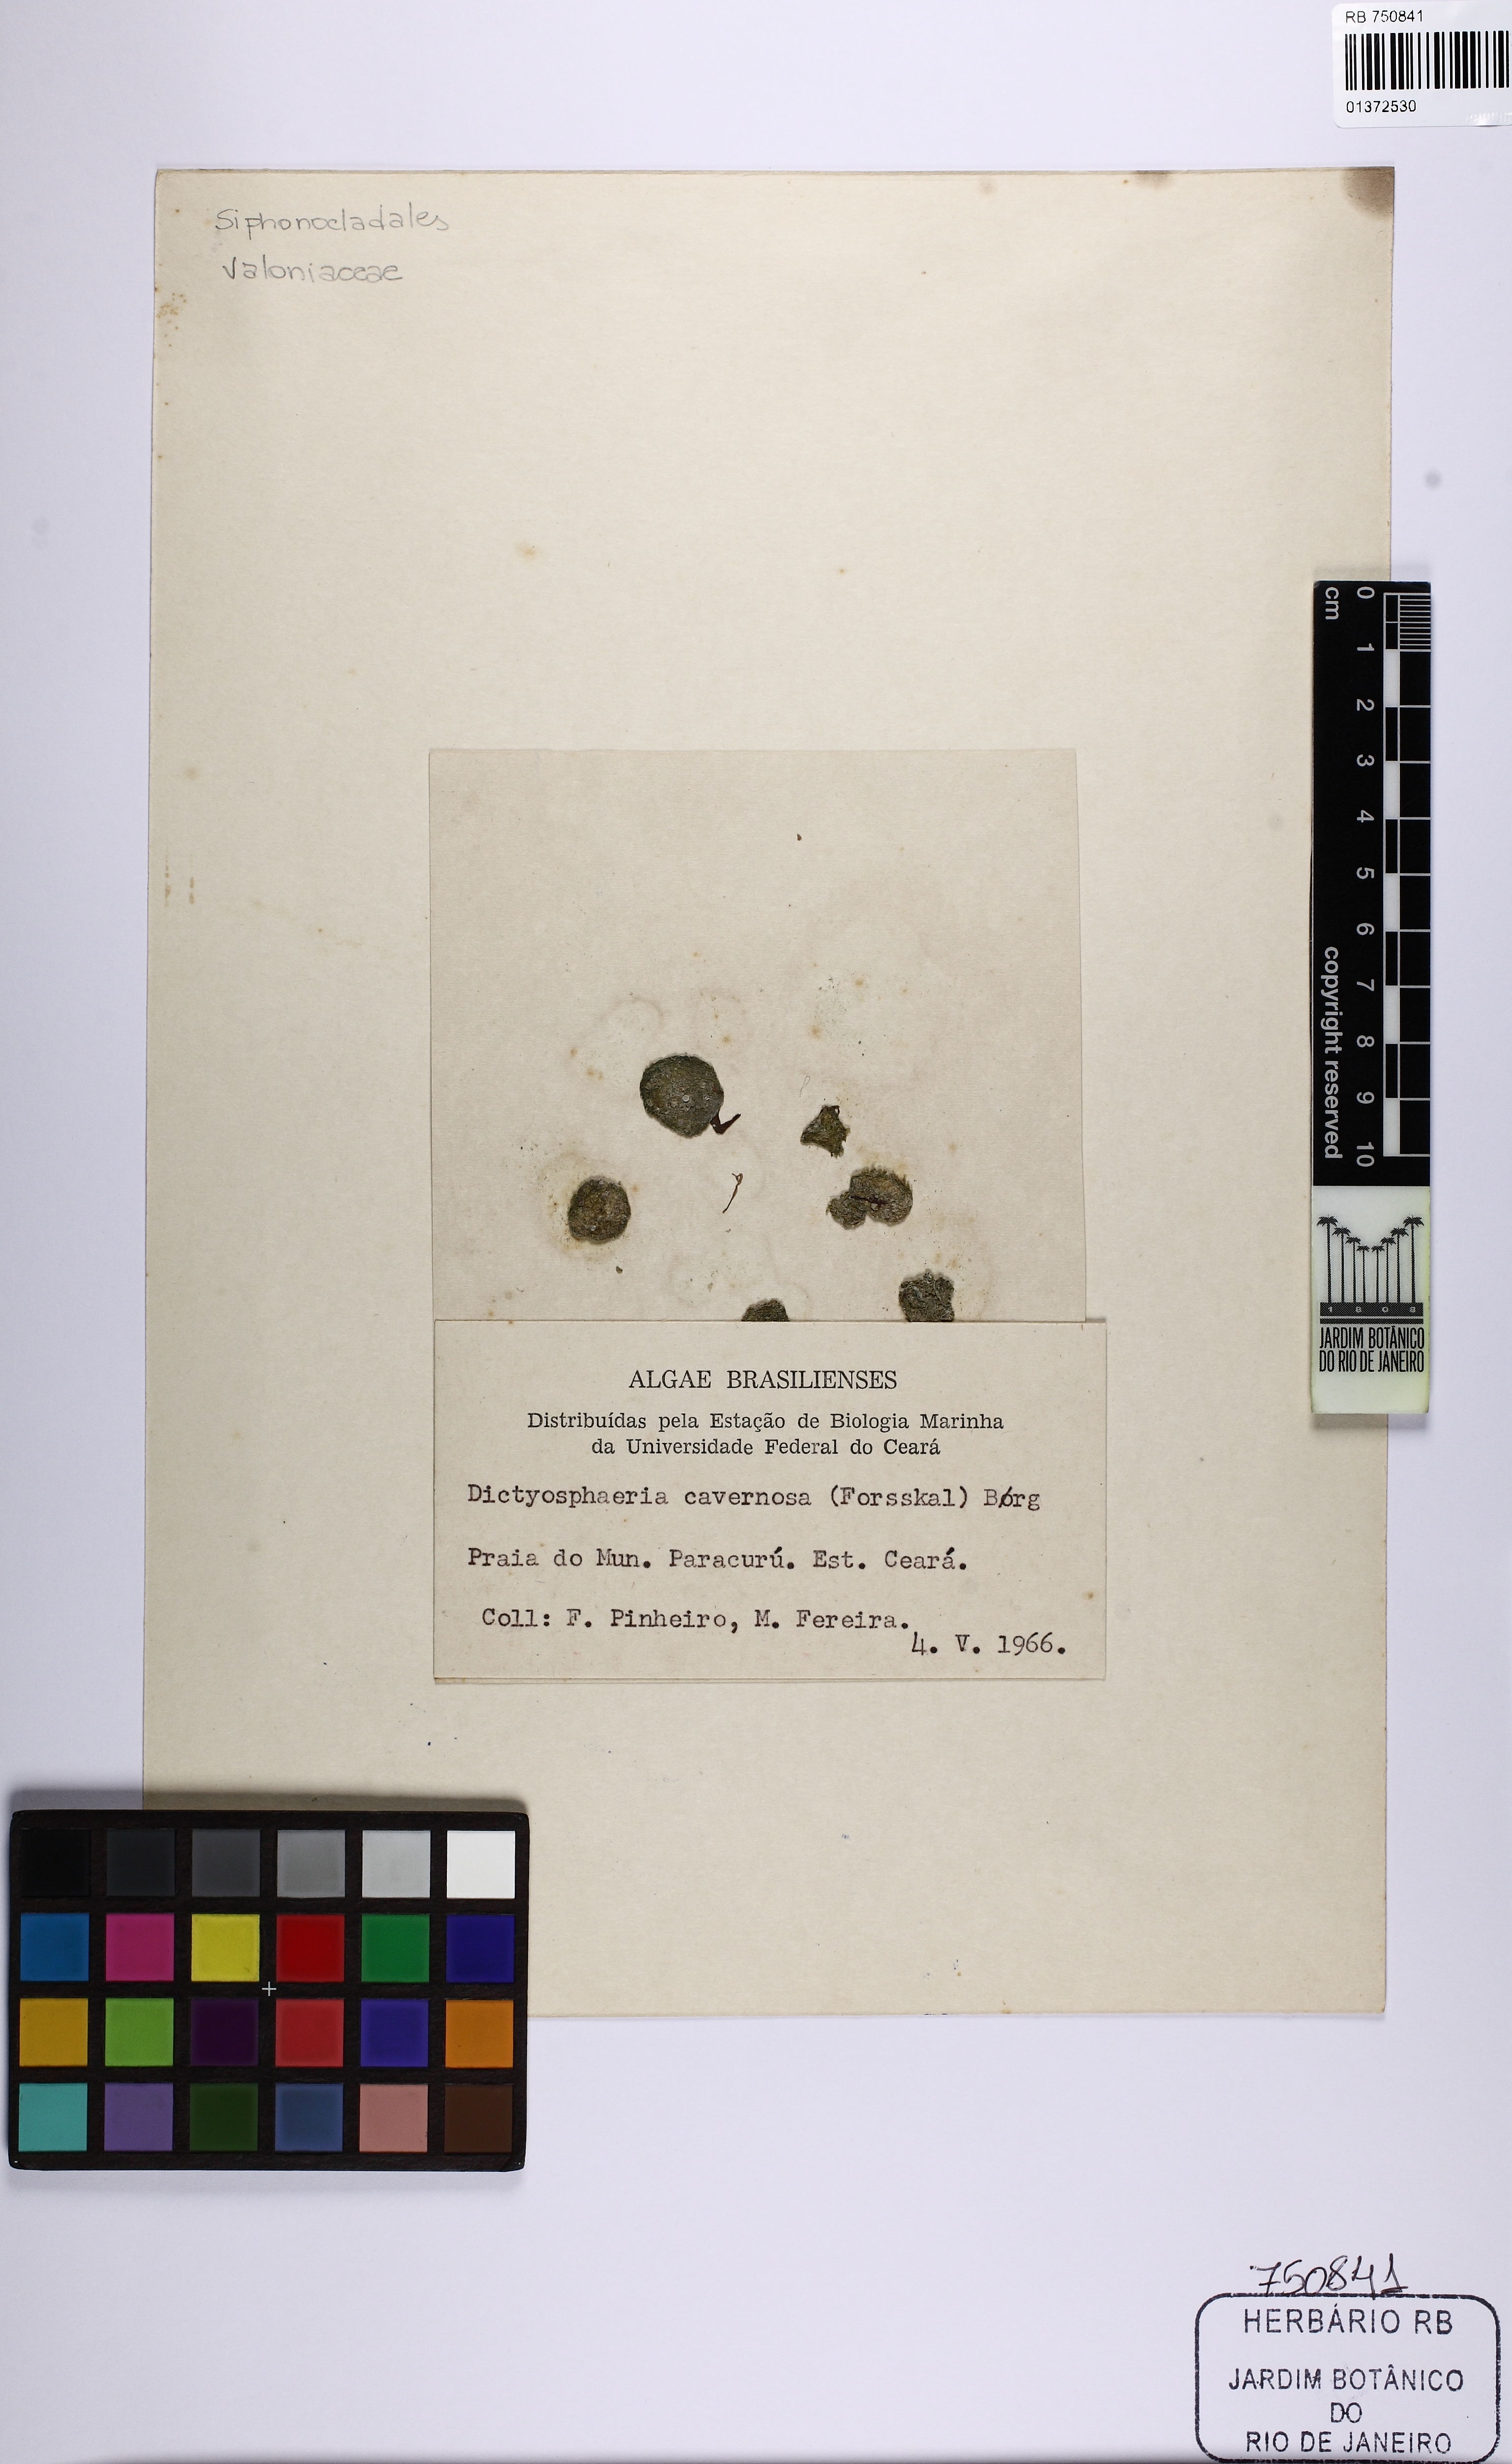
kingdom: Plantae
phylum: Chlorophyta
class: Ulvophyceae
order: Siphonocladales
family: Siphonocladaceae
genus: Dictyosphaeria
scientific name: Dictyosphaeria cavernosa
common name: Green bubble weed
